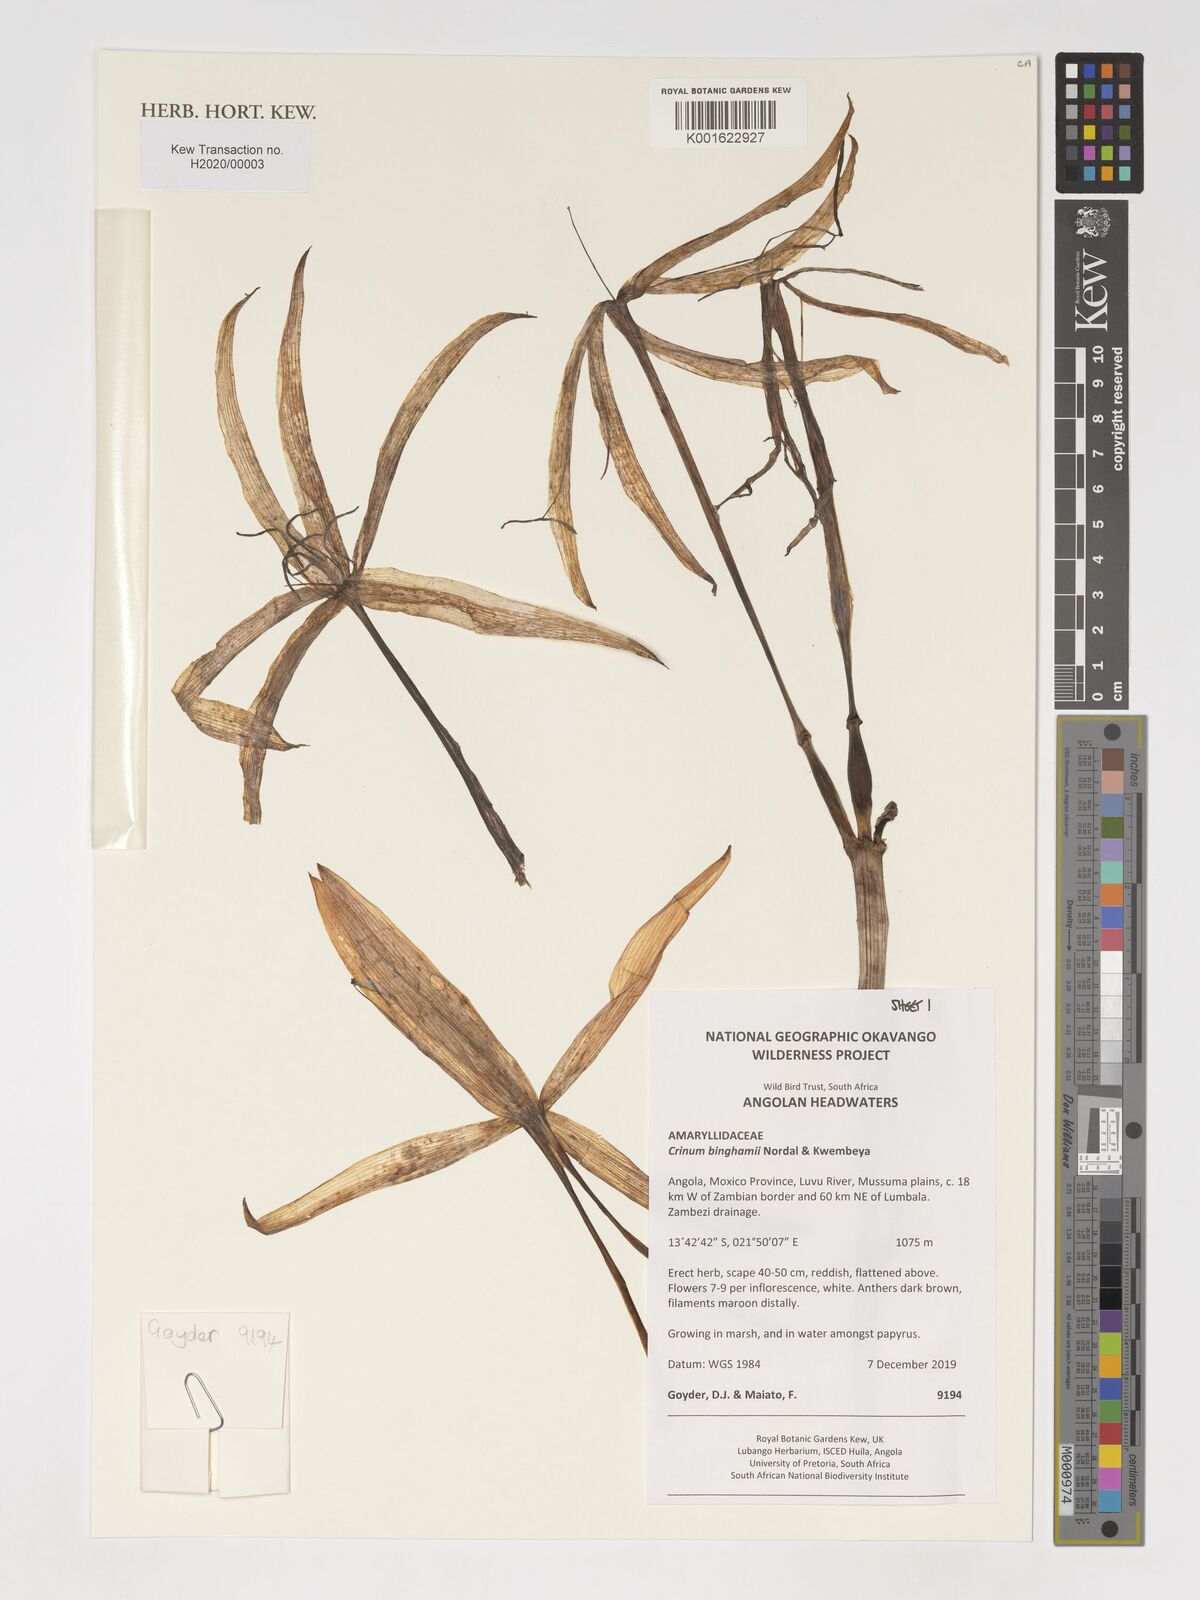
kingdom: Plantae
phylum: Tracheophyta
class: Liliopsida
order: Asparagales
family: Amaryllidaceae
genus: Crinum
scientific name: Crinum binghamii
